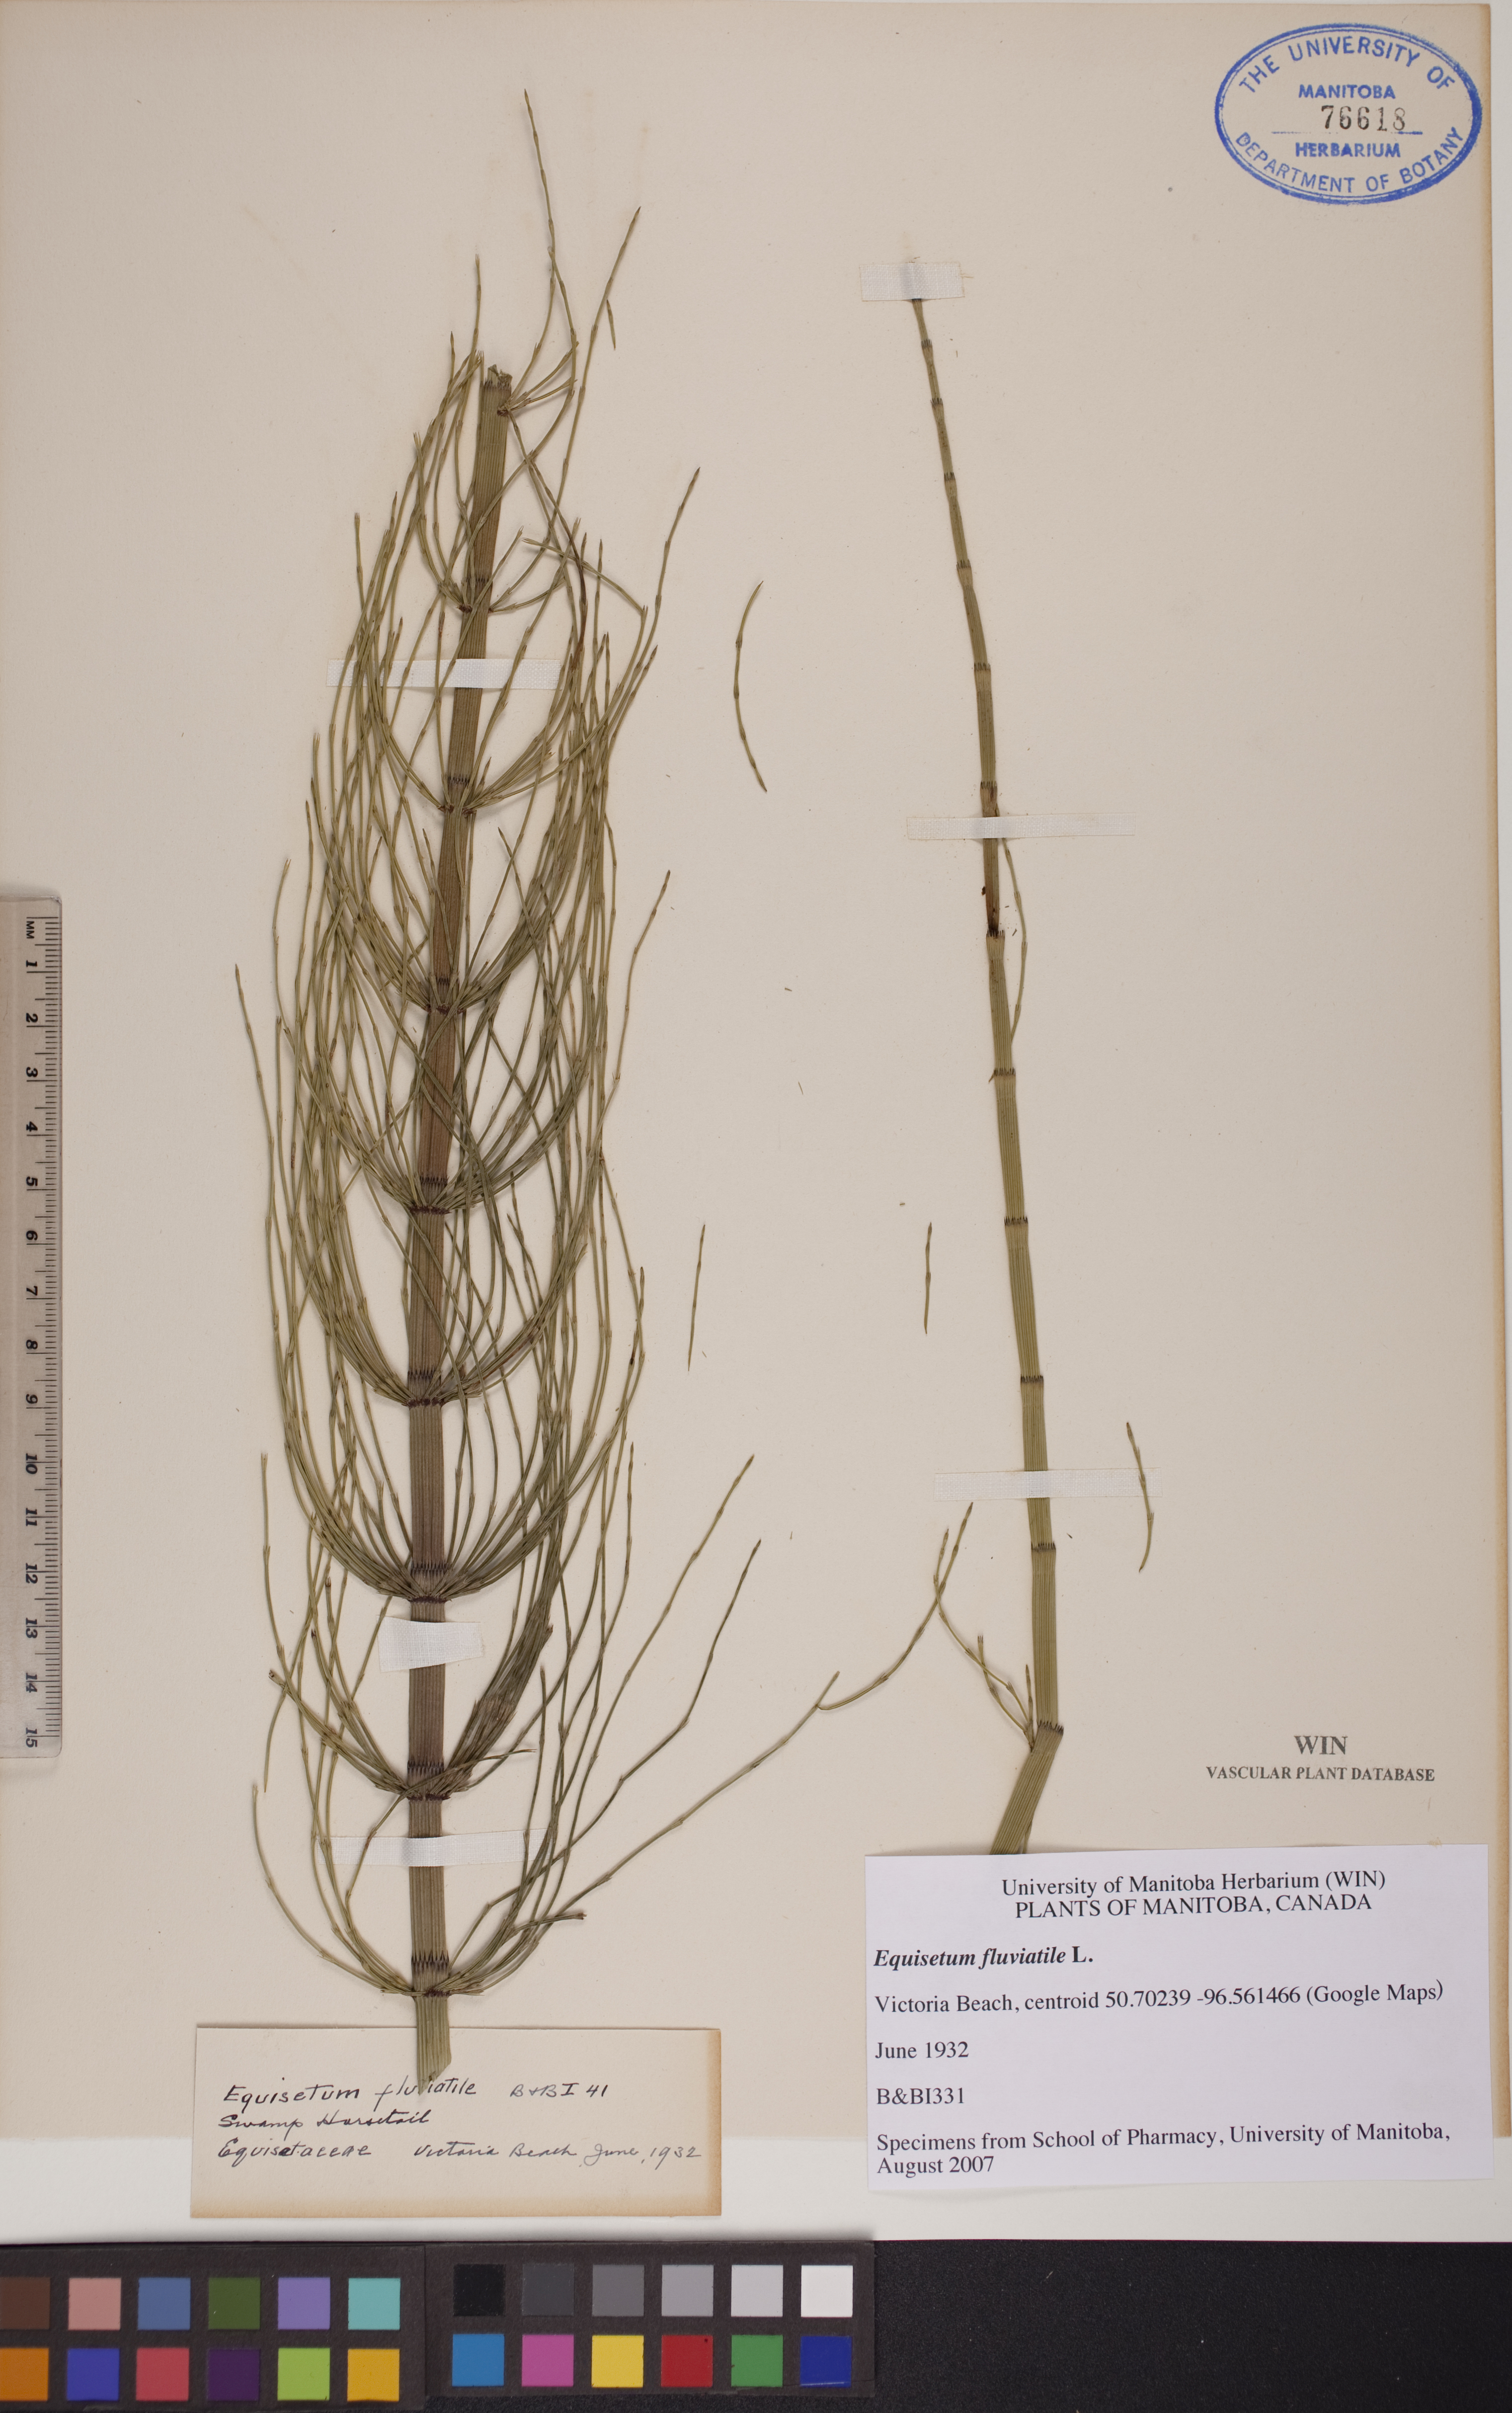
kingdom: Plantae
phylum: Tracheophyta
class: Polypodiopsida
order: Equisetales
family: Equisetaceae
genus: Equisetum
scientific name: Equisetum fluviatile
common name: Water horsetail
